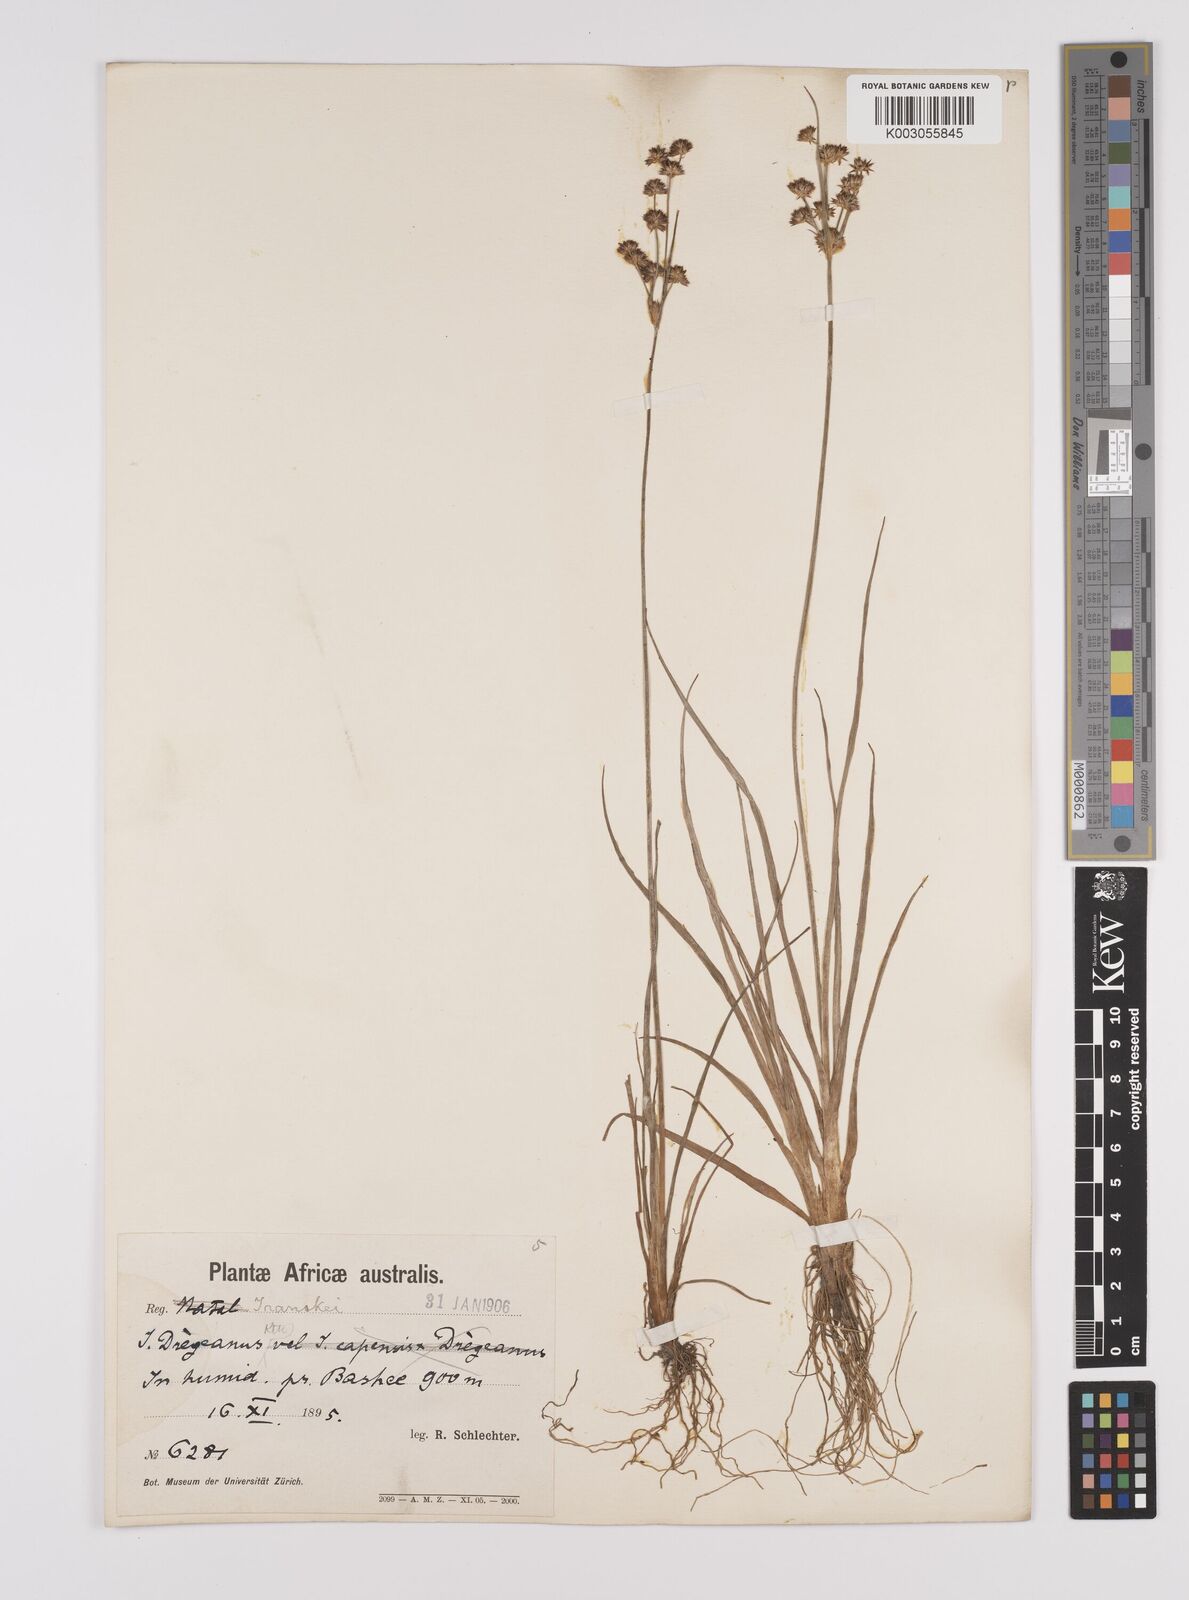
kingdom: Plantae
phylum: Tracheophyta
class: Liliopsida
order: Poales
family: Juncaceae
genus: Juncus
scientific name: Juncus cephalotes
